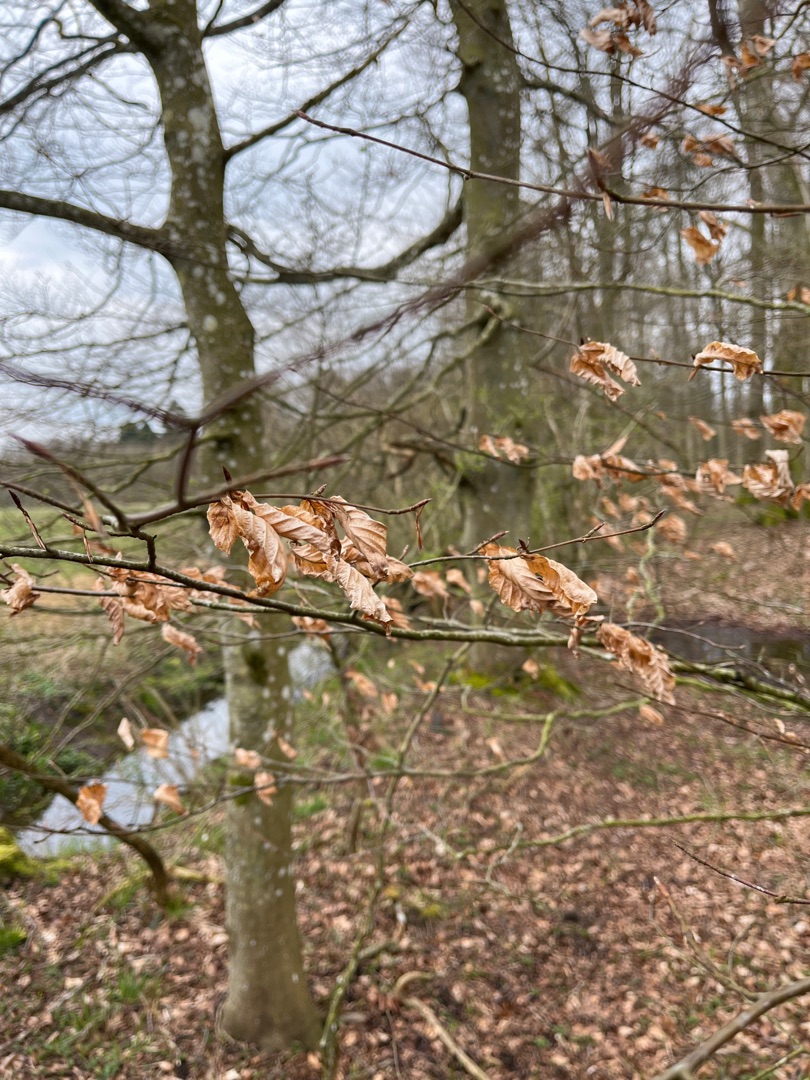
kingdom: Plantae
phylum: Tracheophyta
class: Magnoliopsida
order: Fagales
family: Fagaceae
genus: Fagus
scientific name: Fagus sylvatica
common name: Bøg
